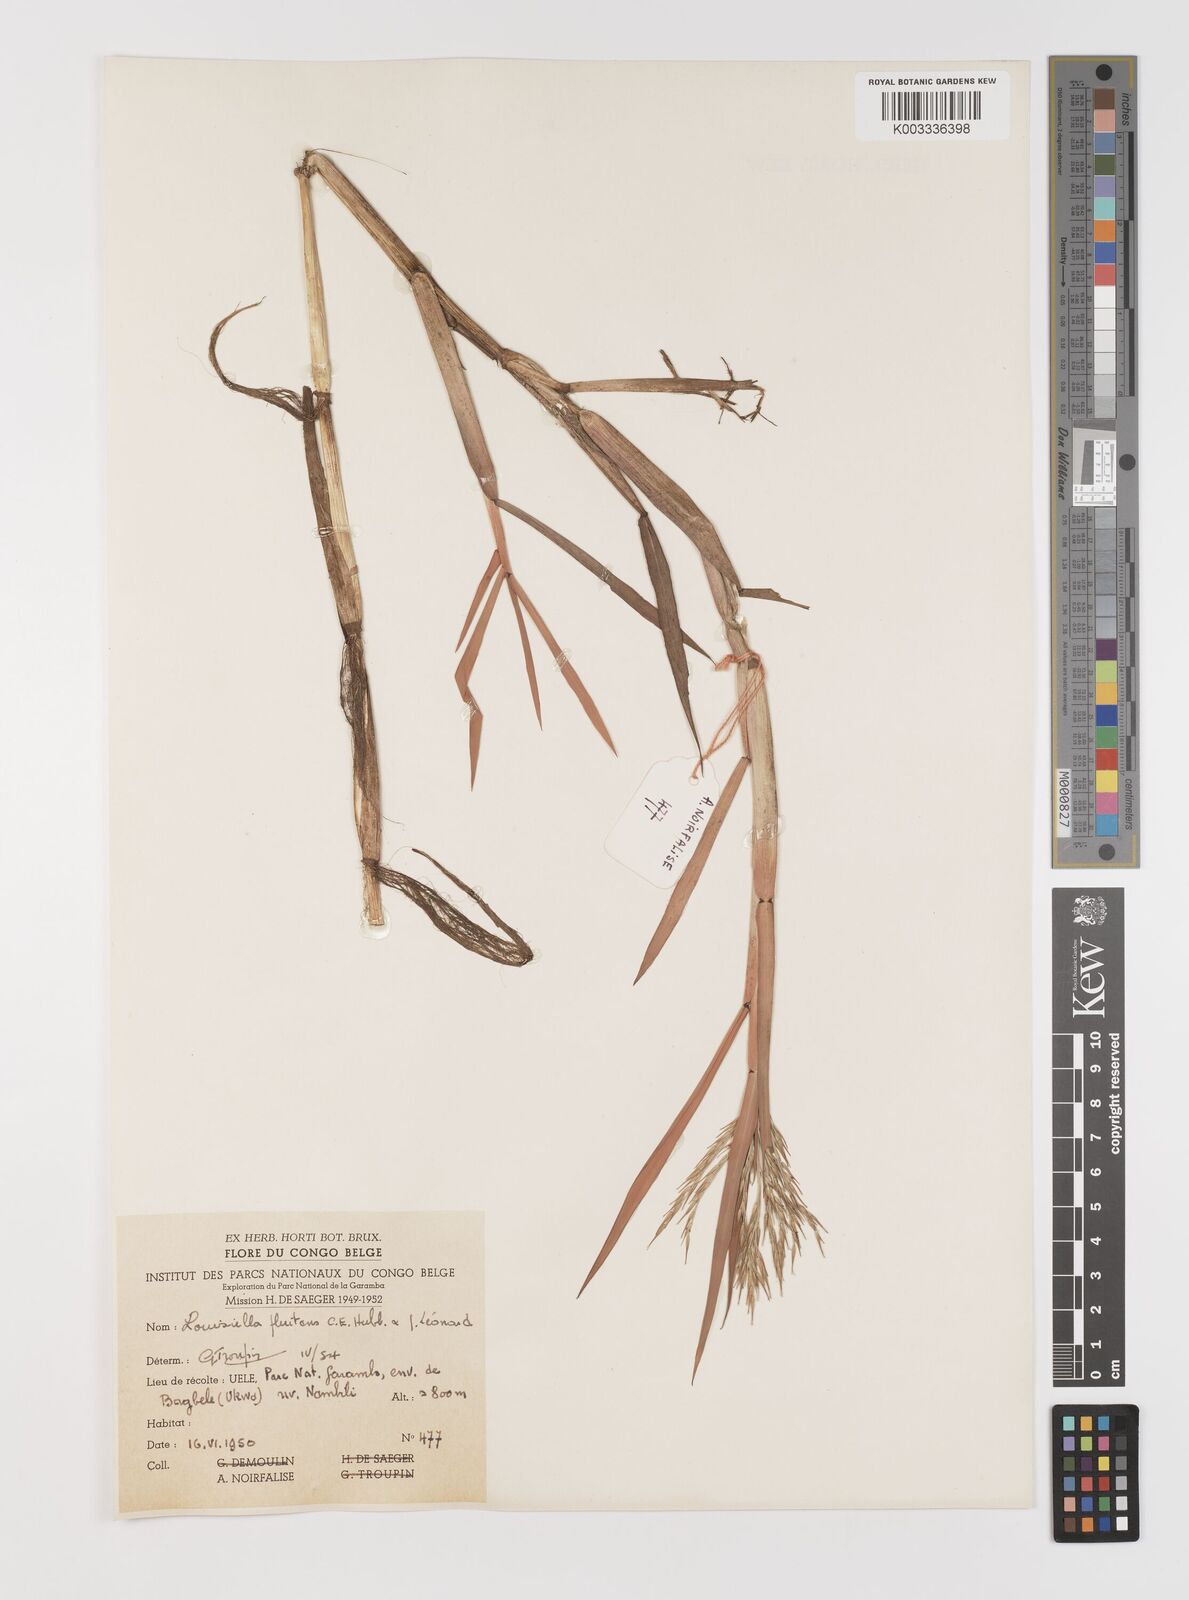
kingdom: Plantae
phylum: Tracheophyta
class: Liliopsida
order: Poales
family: Poaceae
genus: Louisiella
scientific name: Louisiella fluitans
